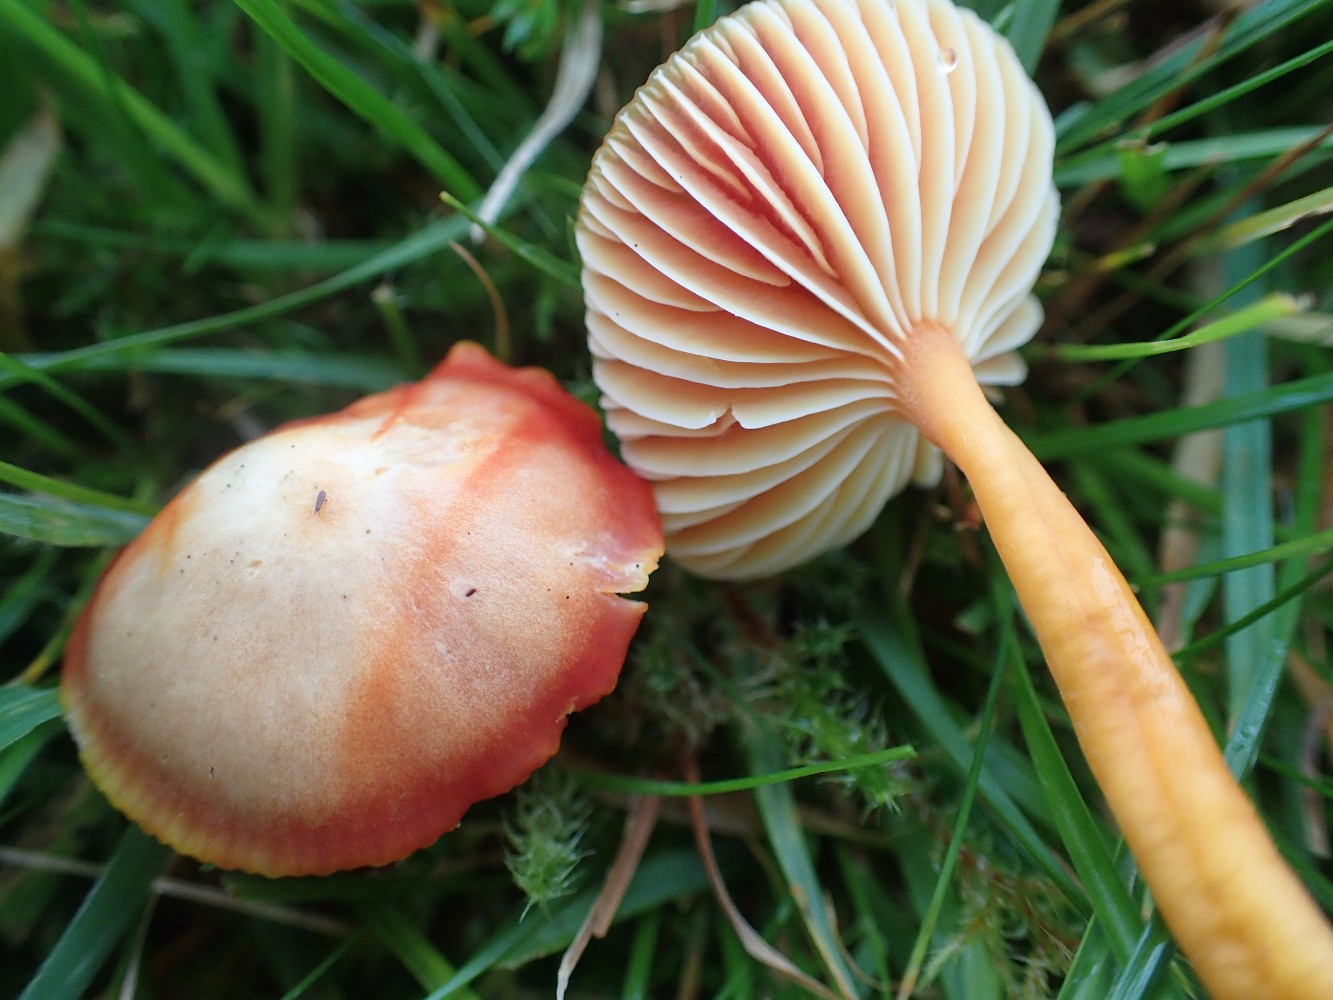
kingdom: Fungi
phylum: Basidiomycota
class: Agaricomycetes
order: Agaricales
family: Hygrophoraceae
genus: Hygrocybe
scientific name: Hygrocybe coccinea
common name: cinnober-vokshat
